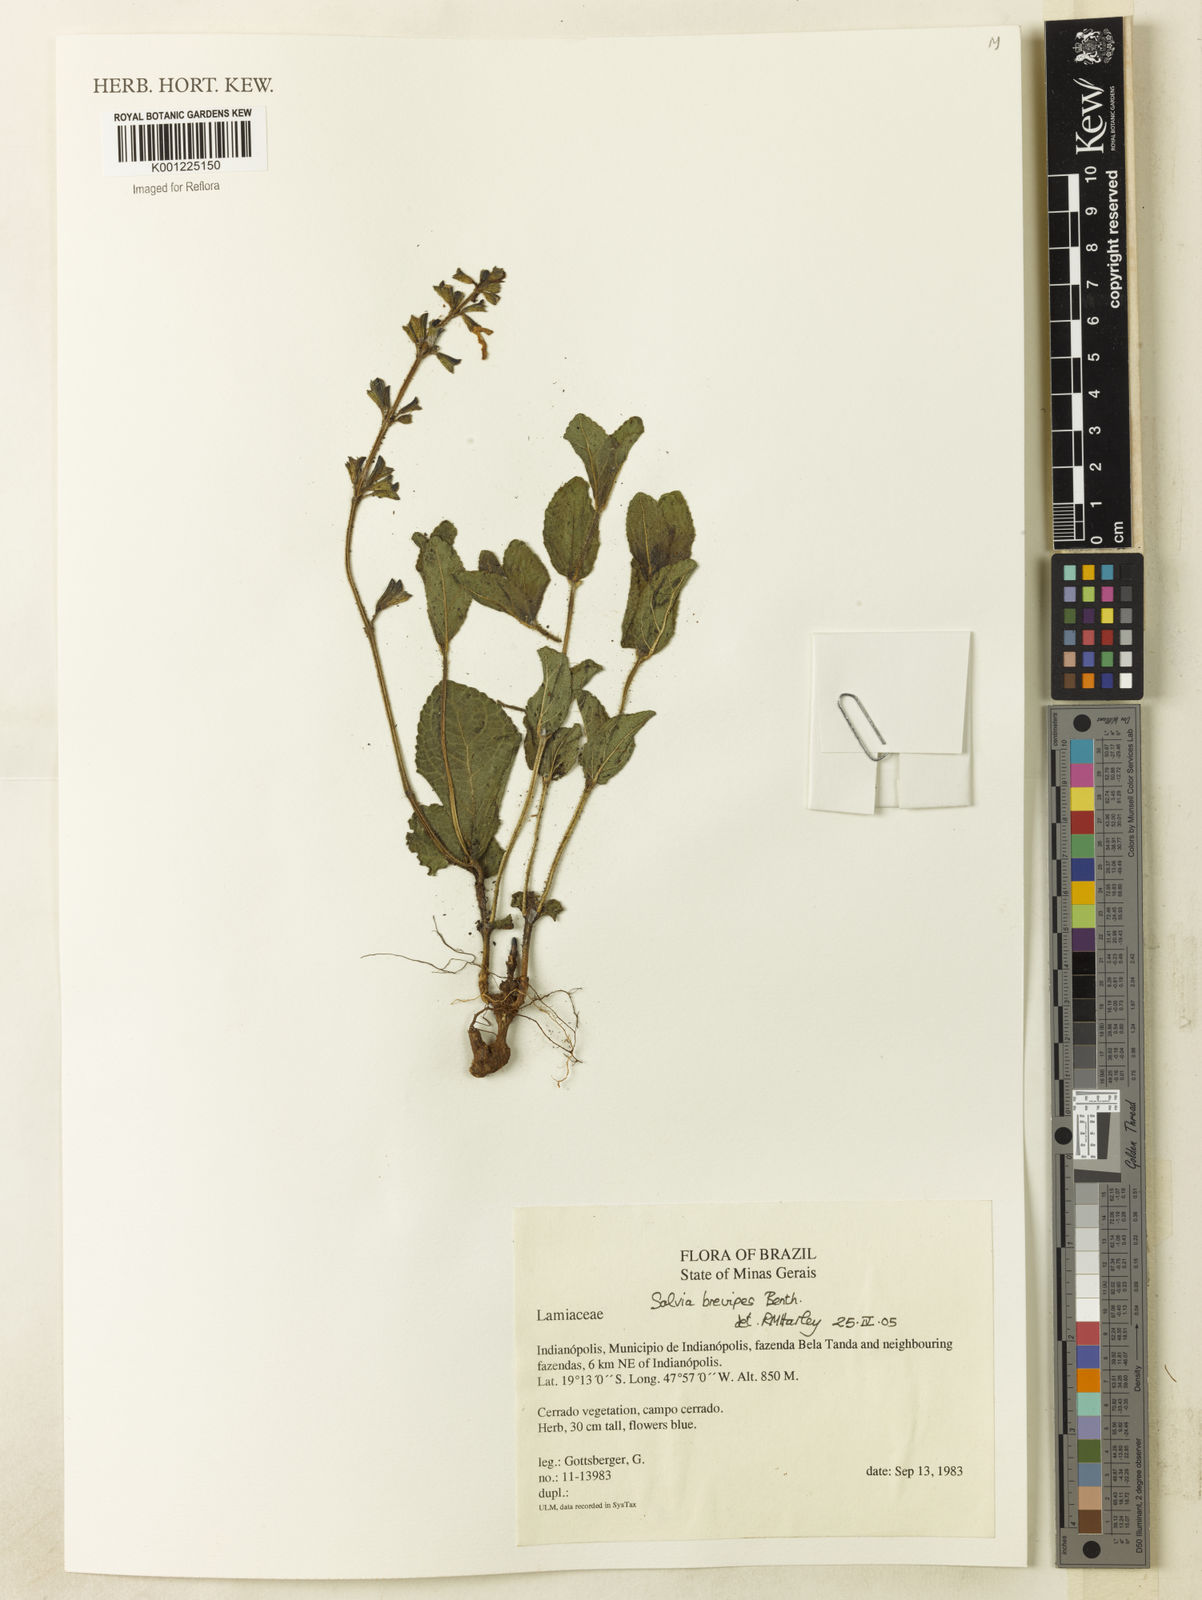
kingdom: Plantae
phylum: Tracheophyta
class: Magnoliopsida
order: Lamiales
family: Lamiaceae
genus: Salvia
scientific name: Salvia brevipes
